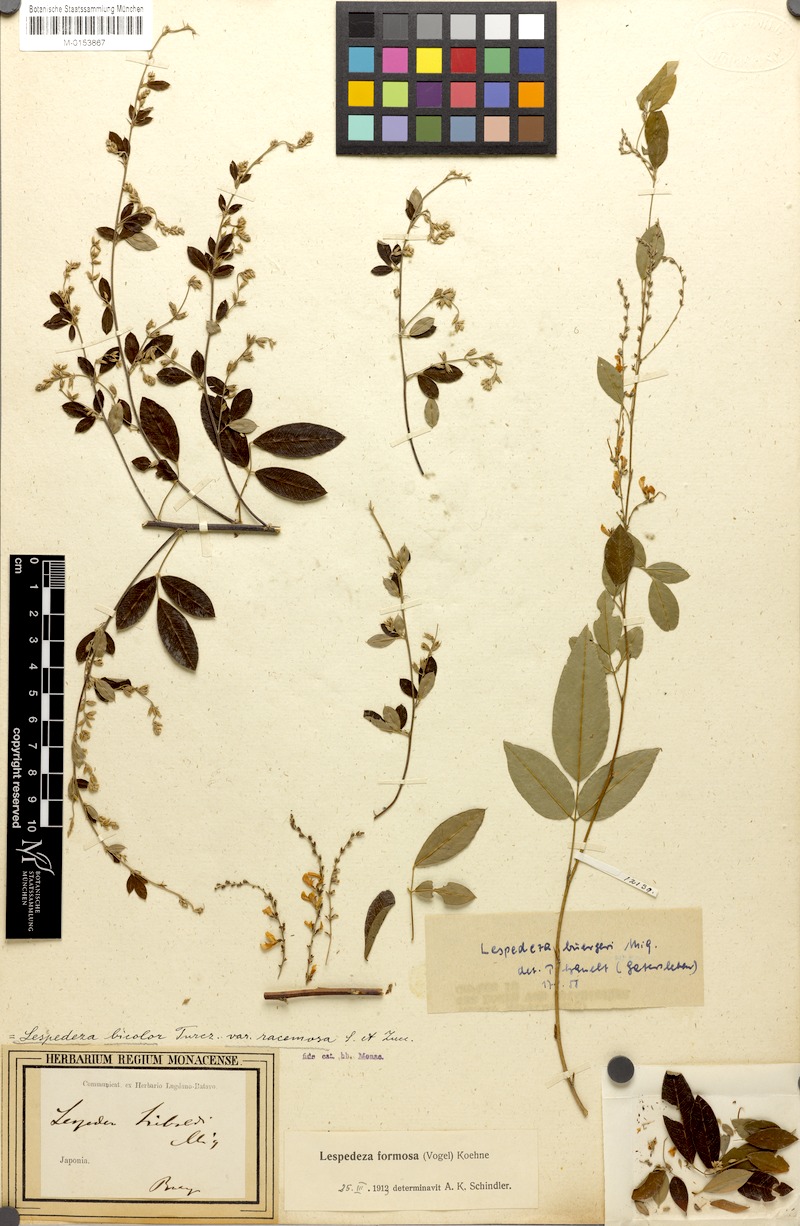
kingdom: Plantae
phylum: Tracheophyta
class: Magnoliopsida
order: Fabales
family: Fabaceae
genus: Lespedeza
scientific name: Lespedeza thunbergii
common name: Thunberg's lespedeza
